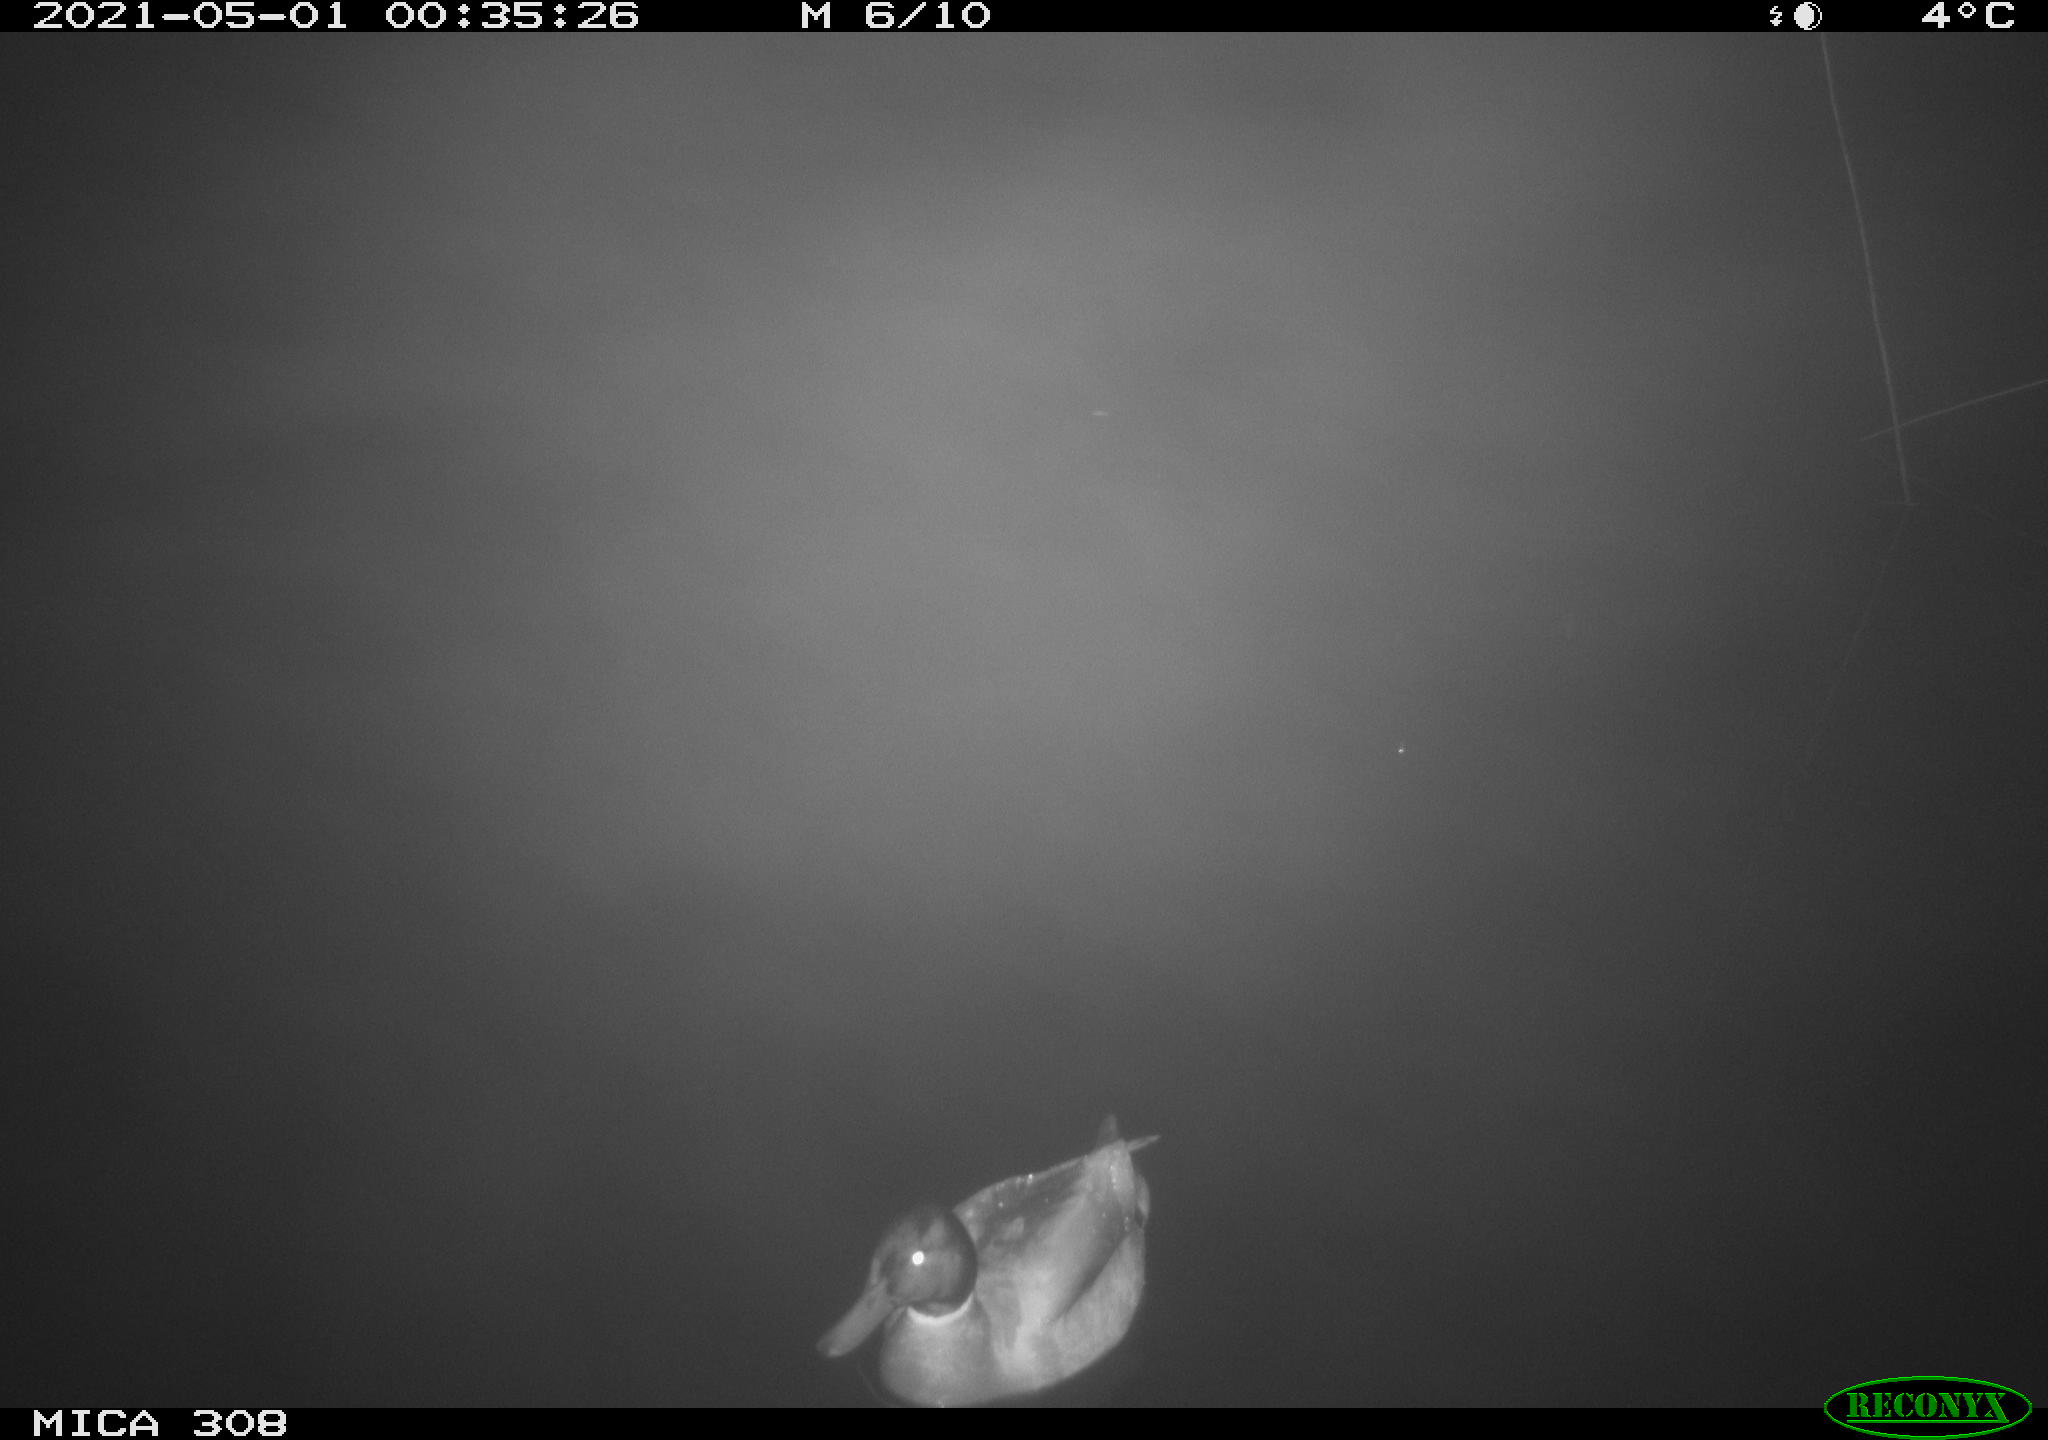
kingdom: Animalia
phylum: Chordata
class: Aves
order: Anseriformes
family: Anatidae
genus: Anas
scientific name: Anas platyrhynchos
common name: Mallard
